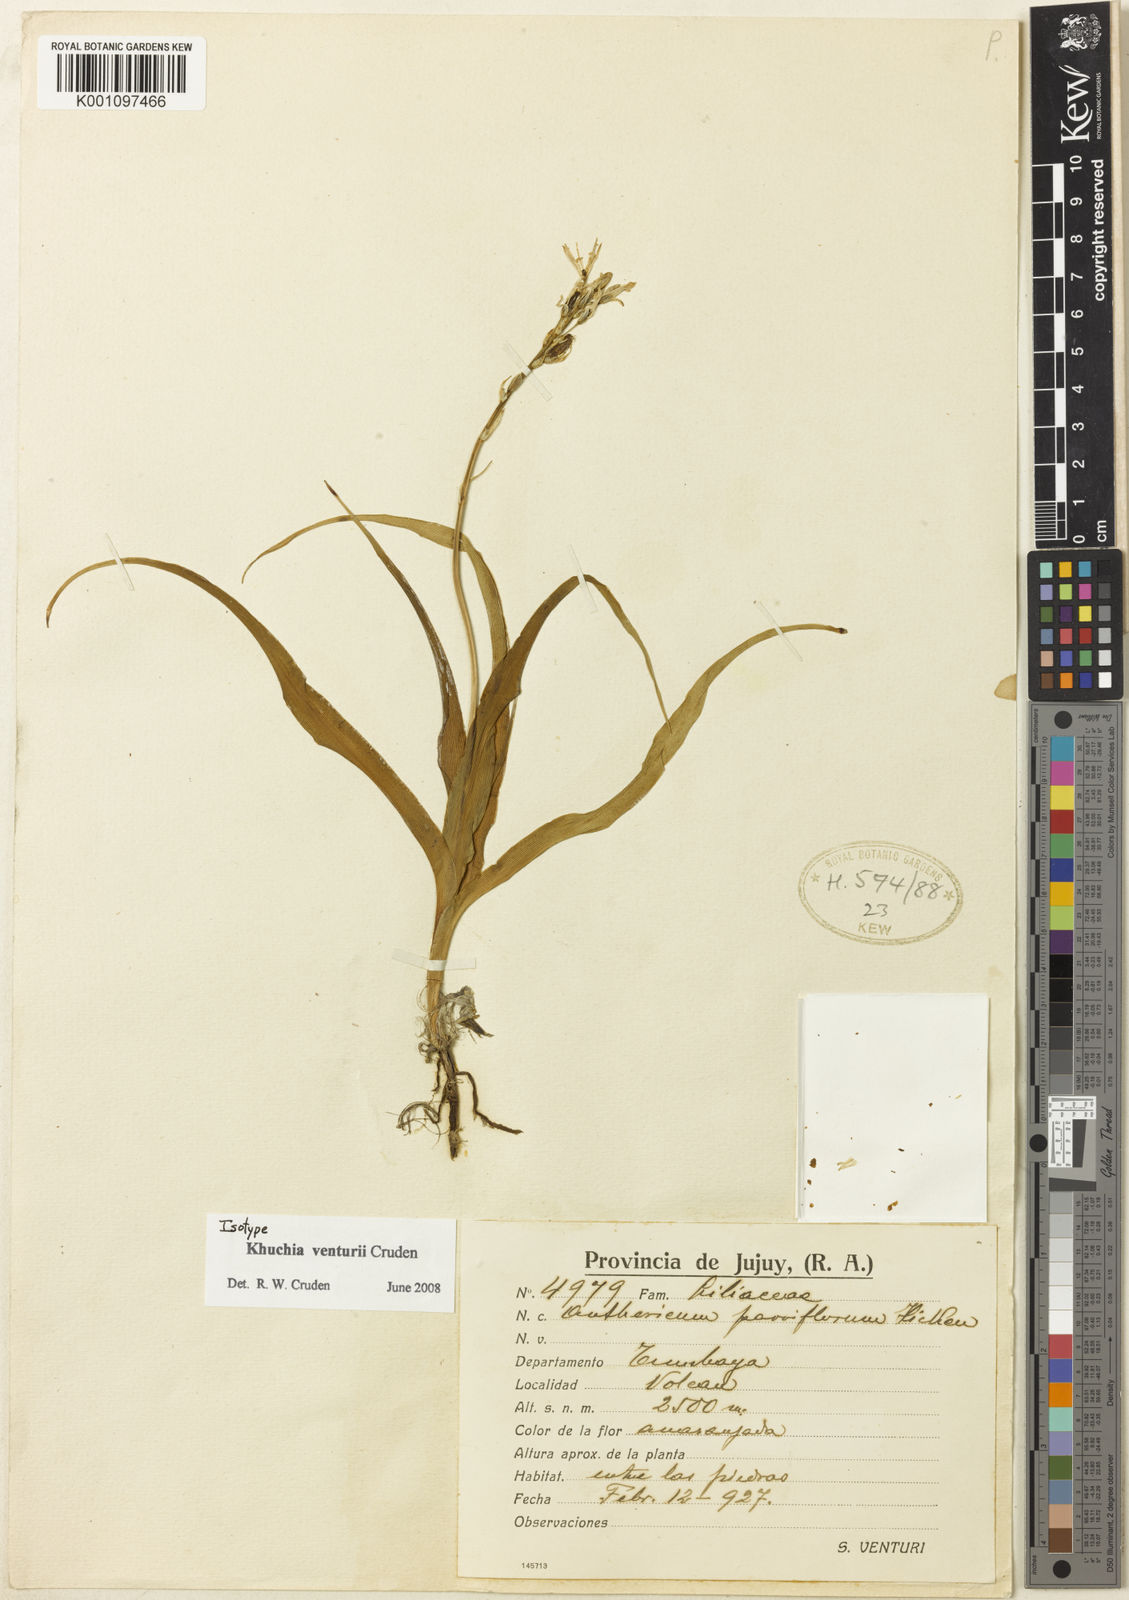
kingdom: Plantae
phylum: Tracheophyta
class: Liliopsida
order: Asparagales
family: Asparagaceae
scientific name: Asparagaceae
